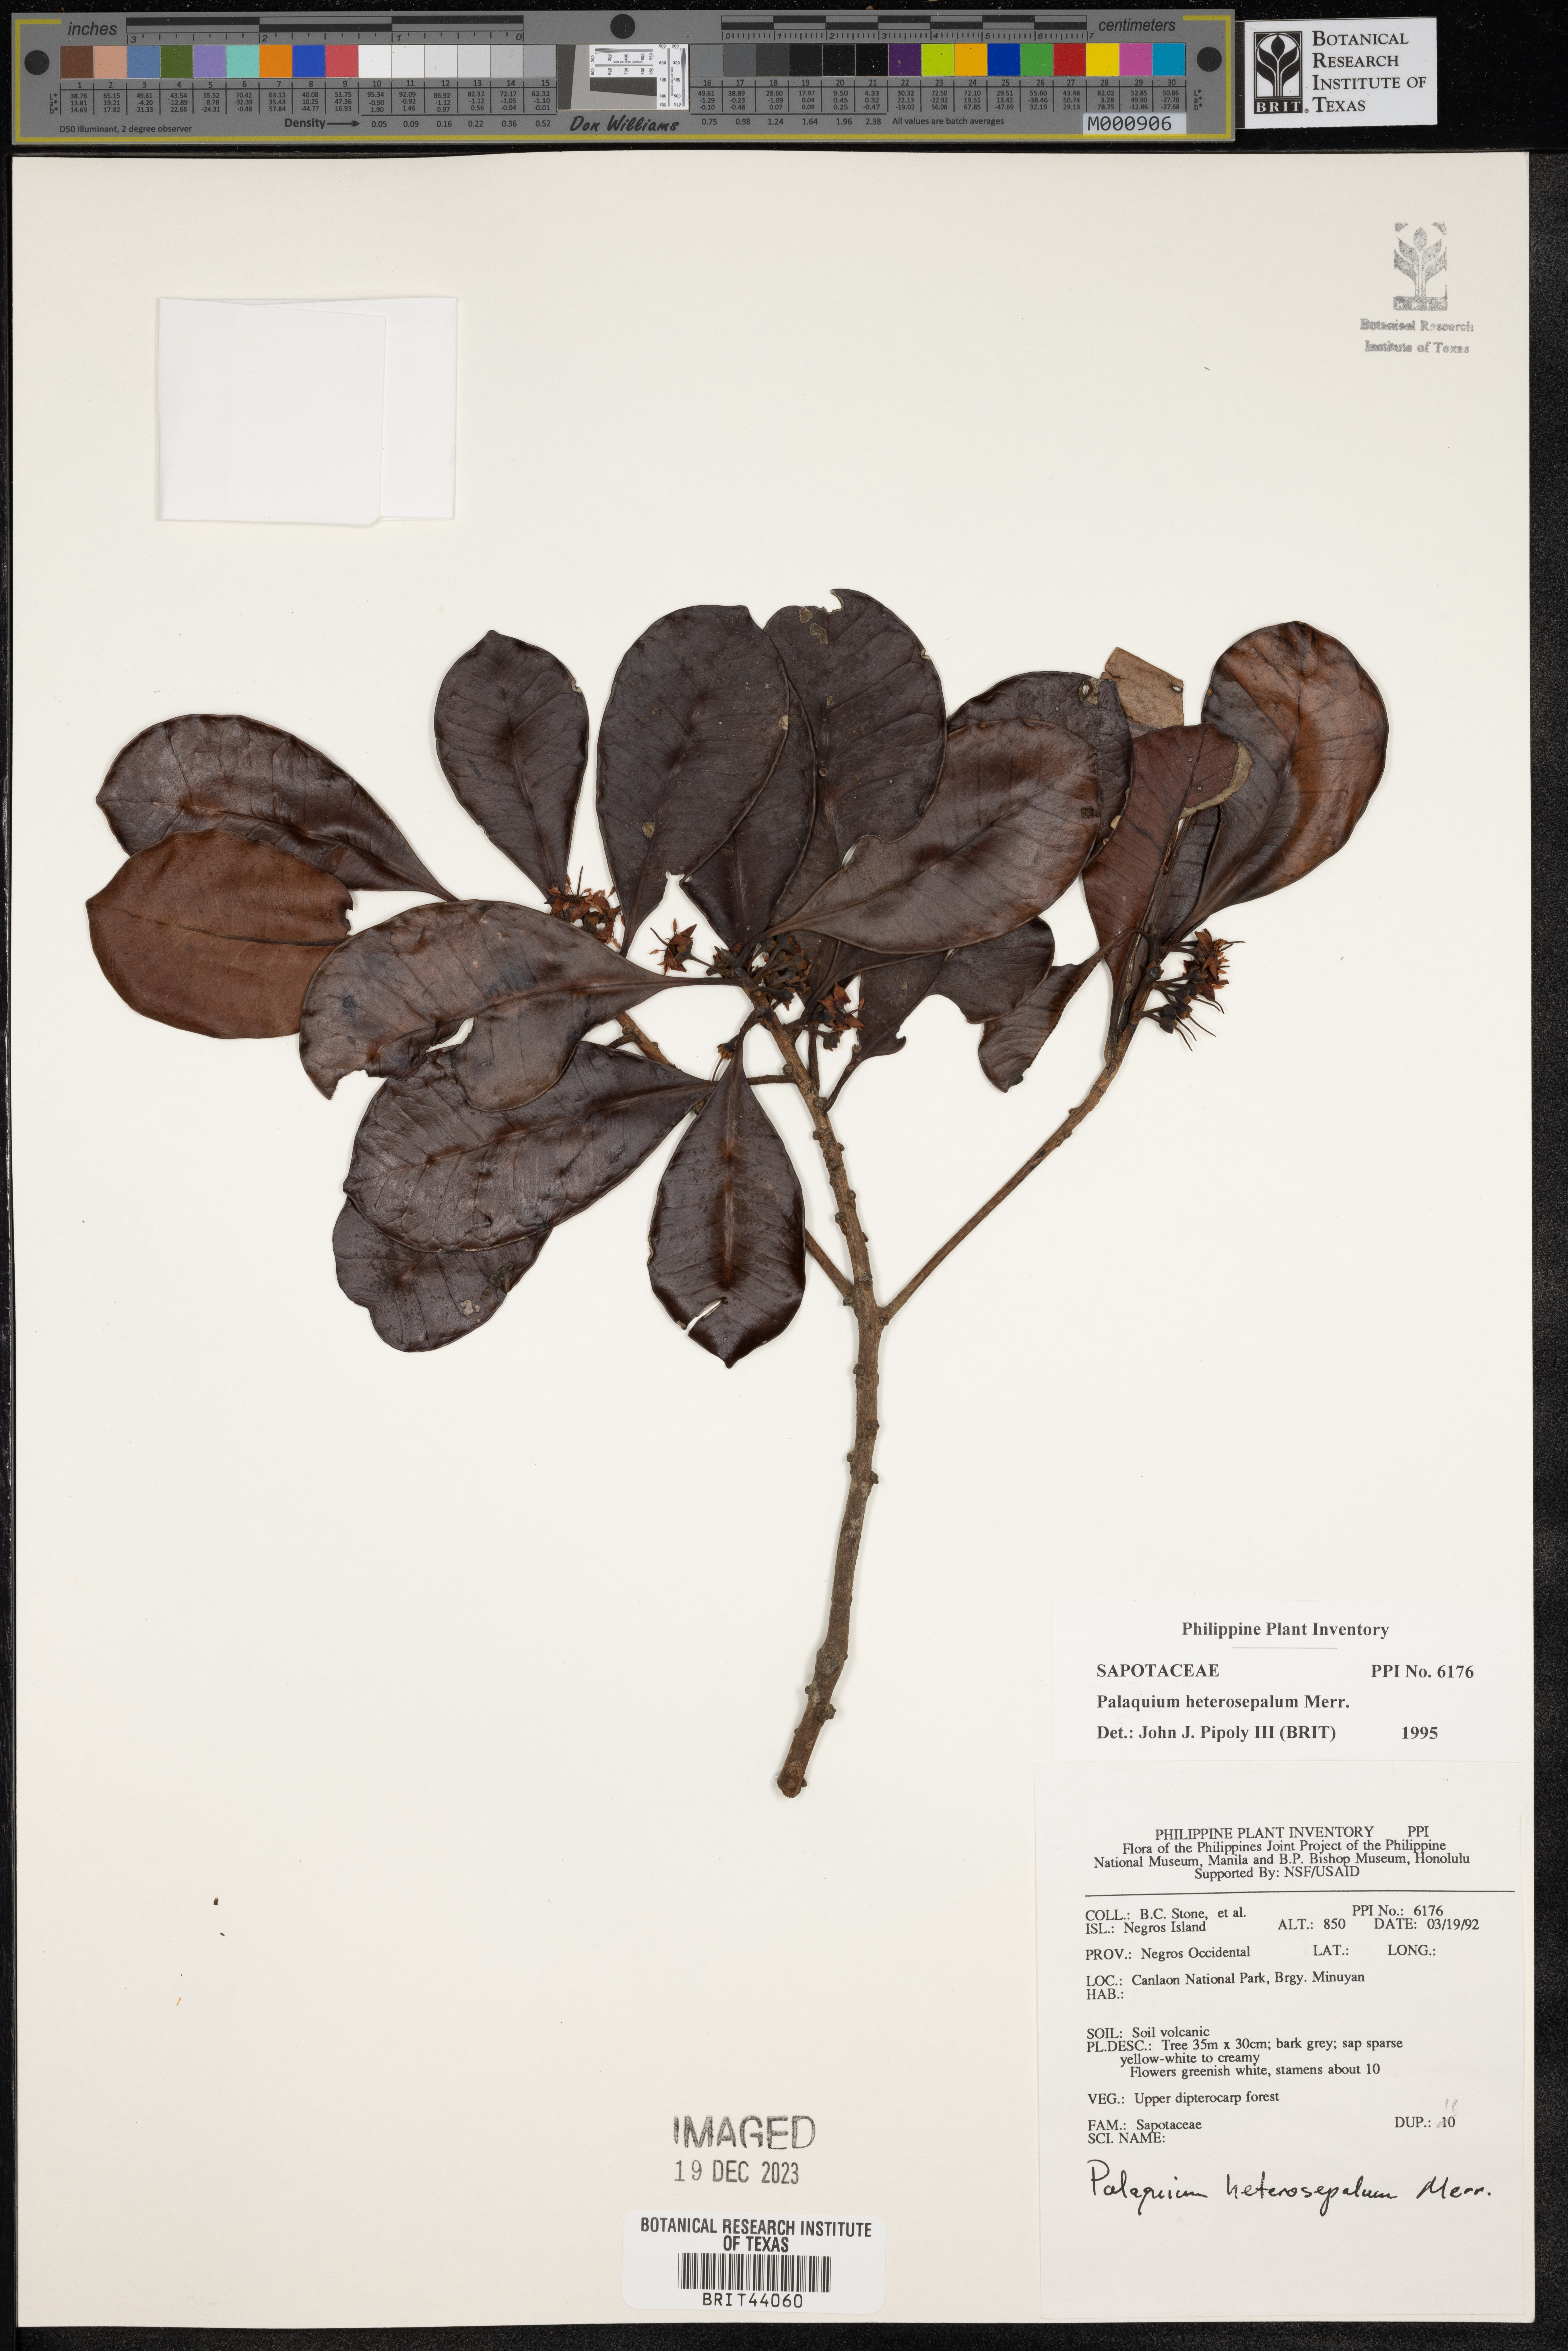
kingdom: Plantae
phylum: Tracheophyta
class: Magnoliopsida
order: Ericales
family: Sapotaceae
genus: Palaquium
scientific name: Palaquium heterosepalum
